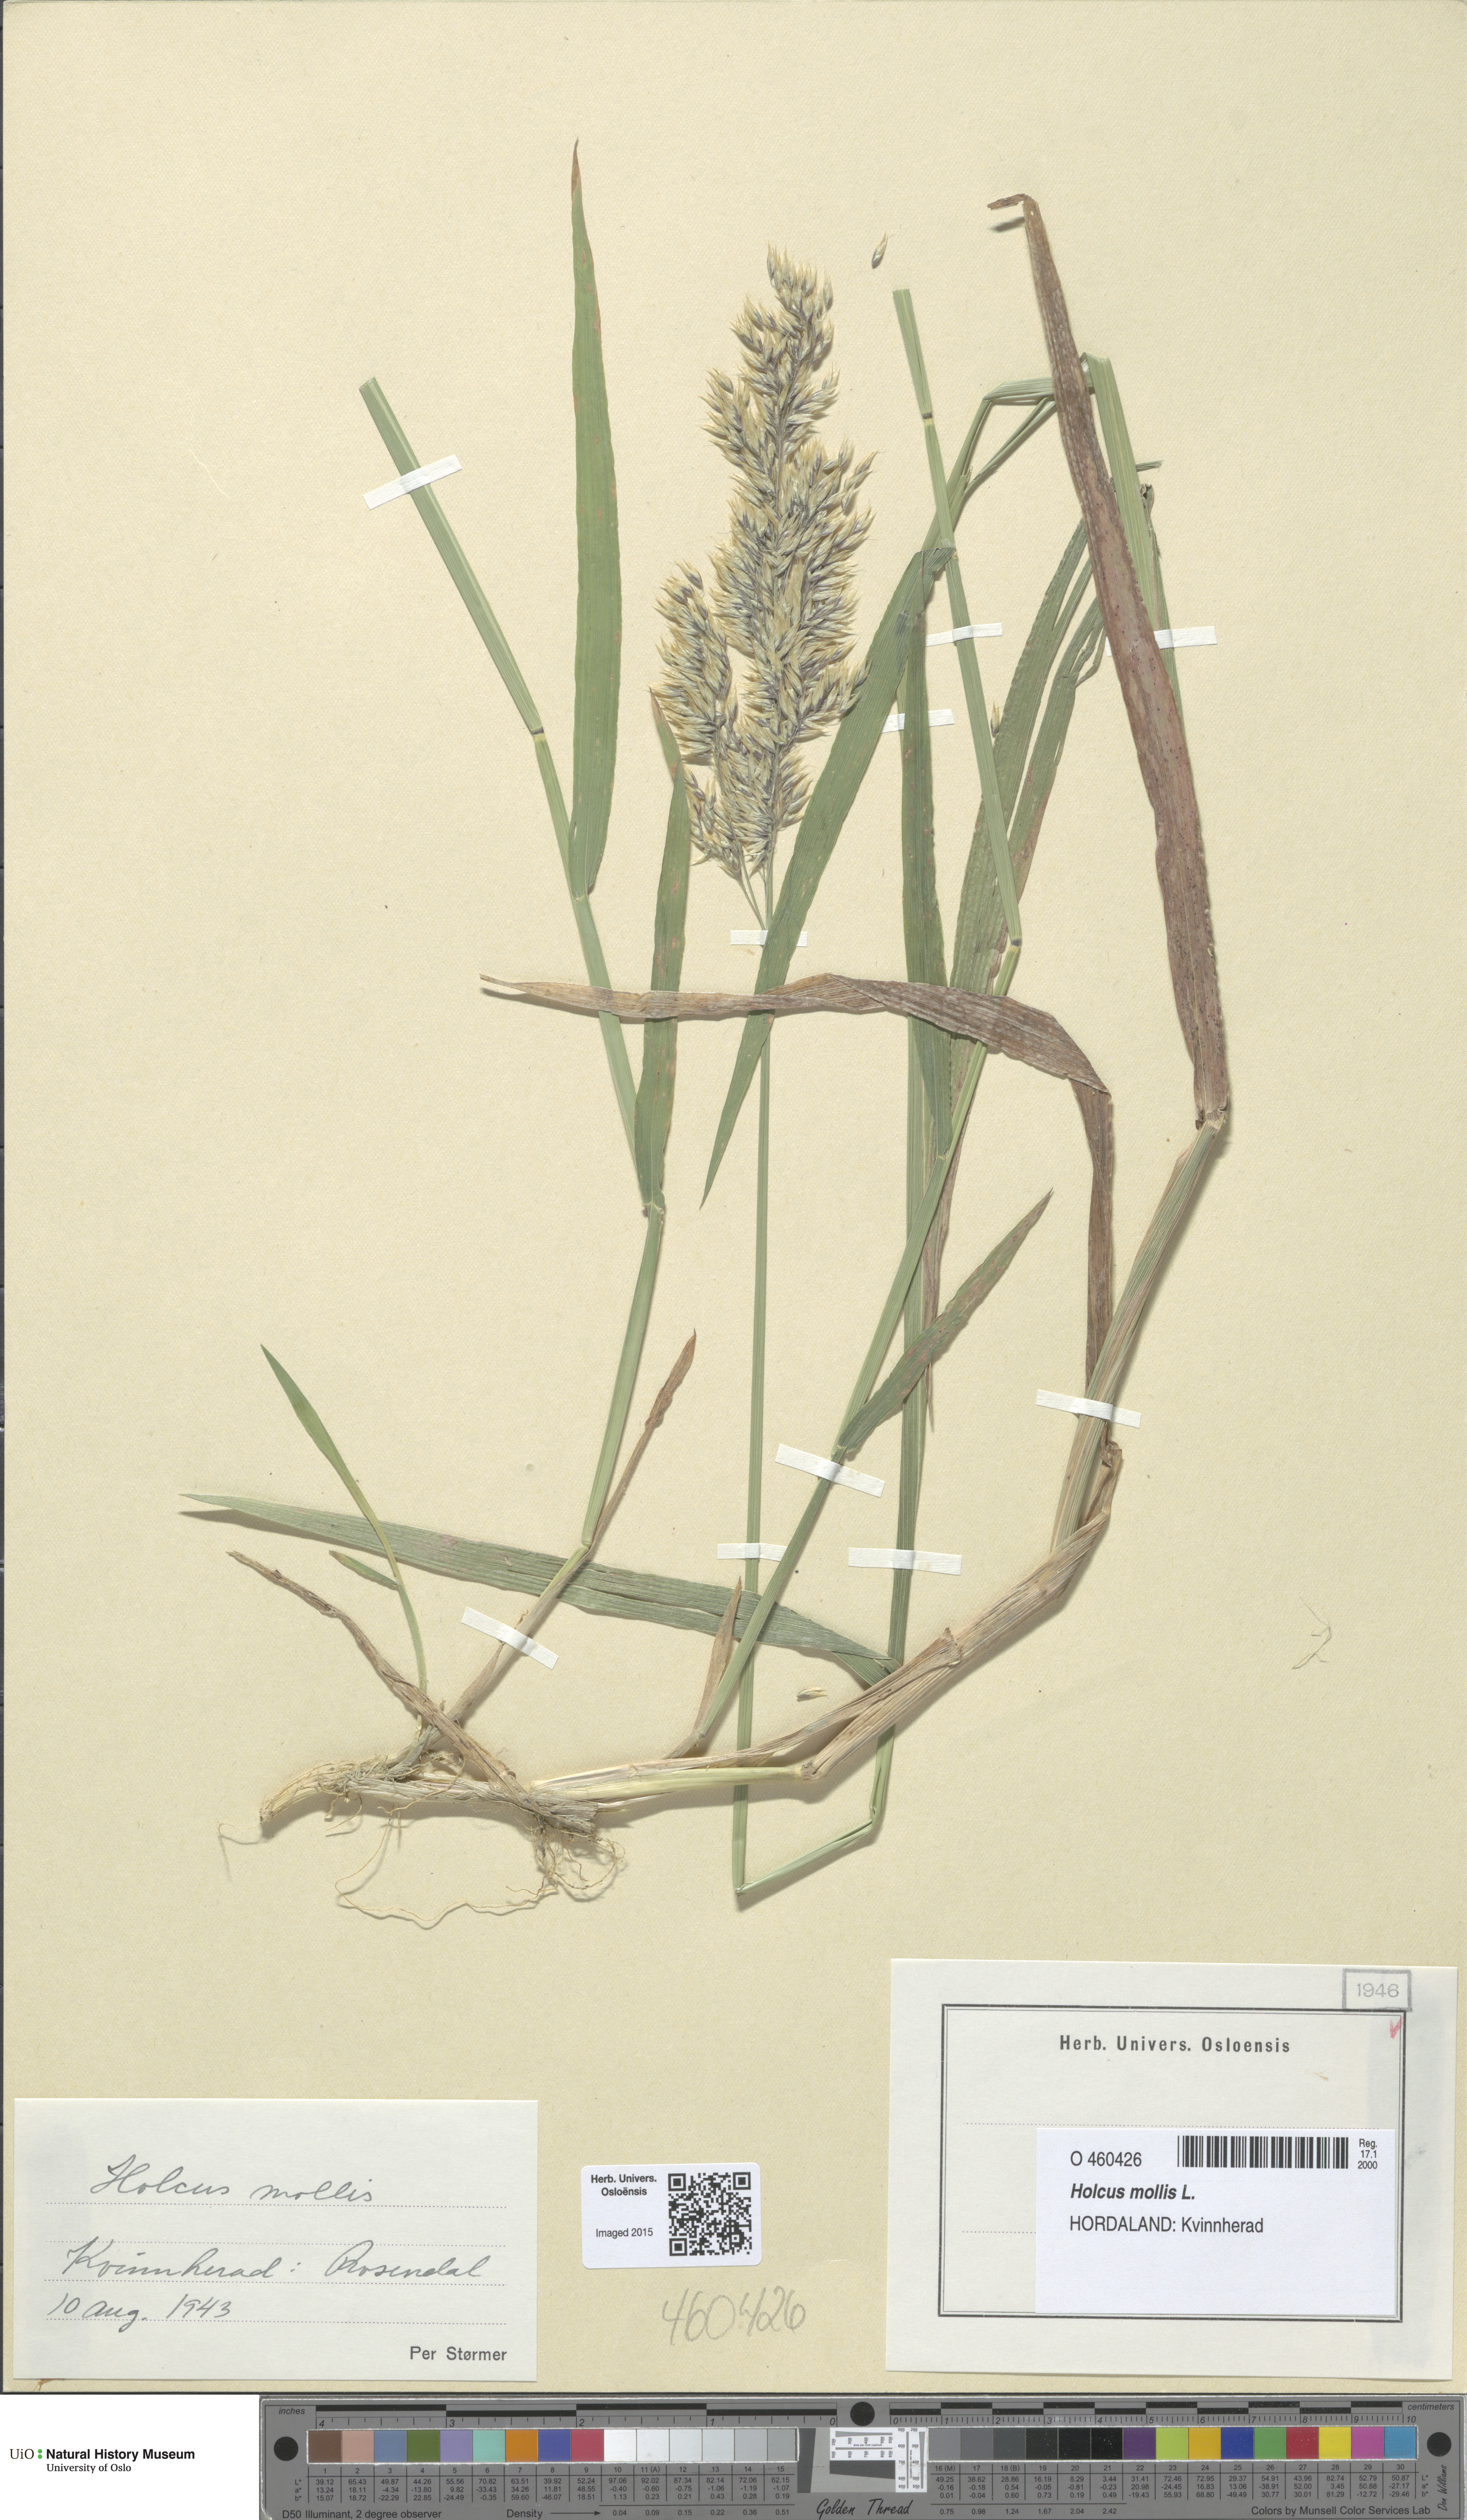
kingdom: Plantae
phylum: Tracheophyta
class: Liliopsida
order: Poales
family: Poaceae
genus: Holcus
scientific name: Holcus mollis
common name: Creeping velvetgrass
